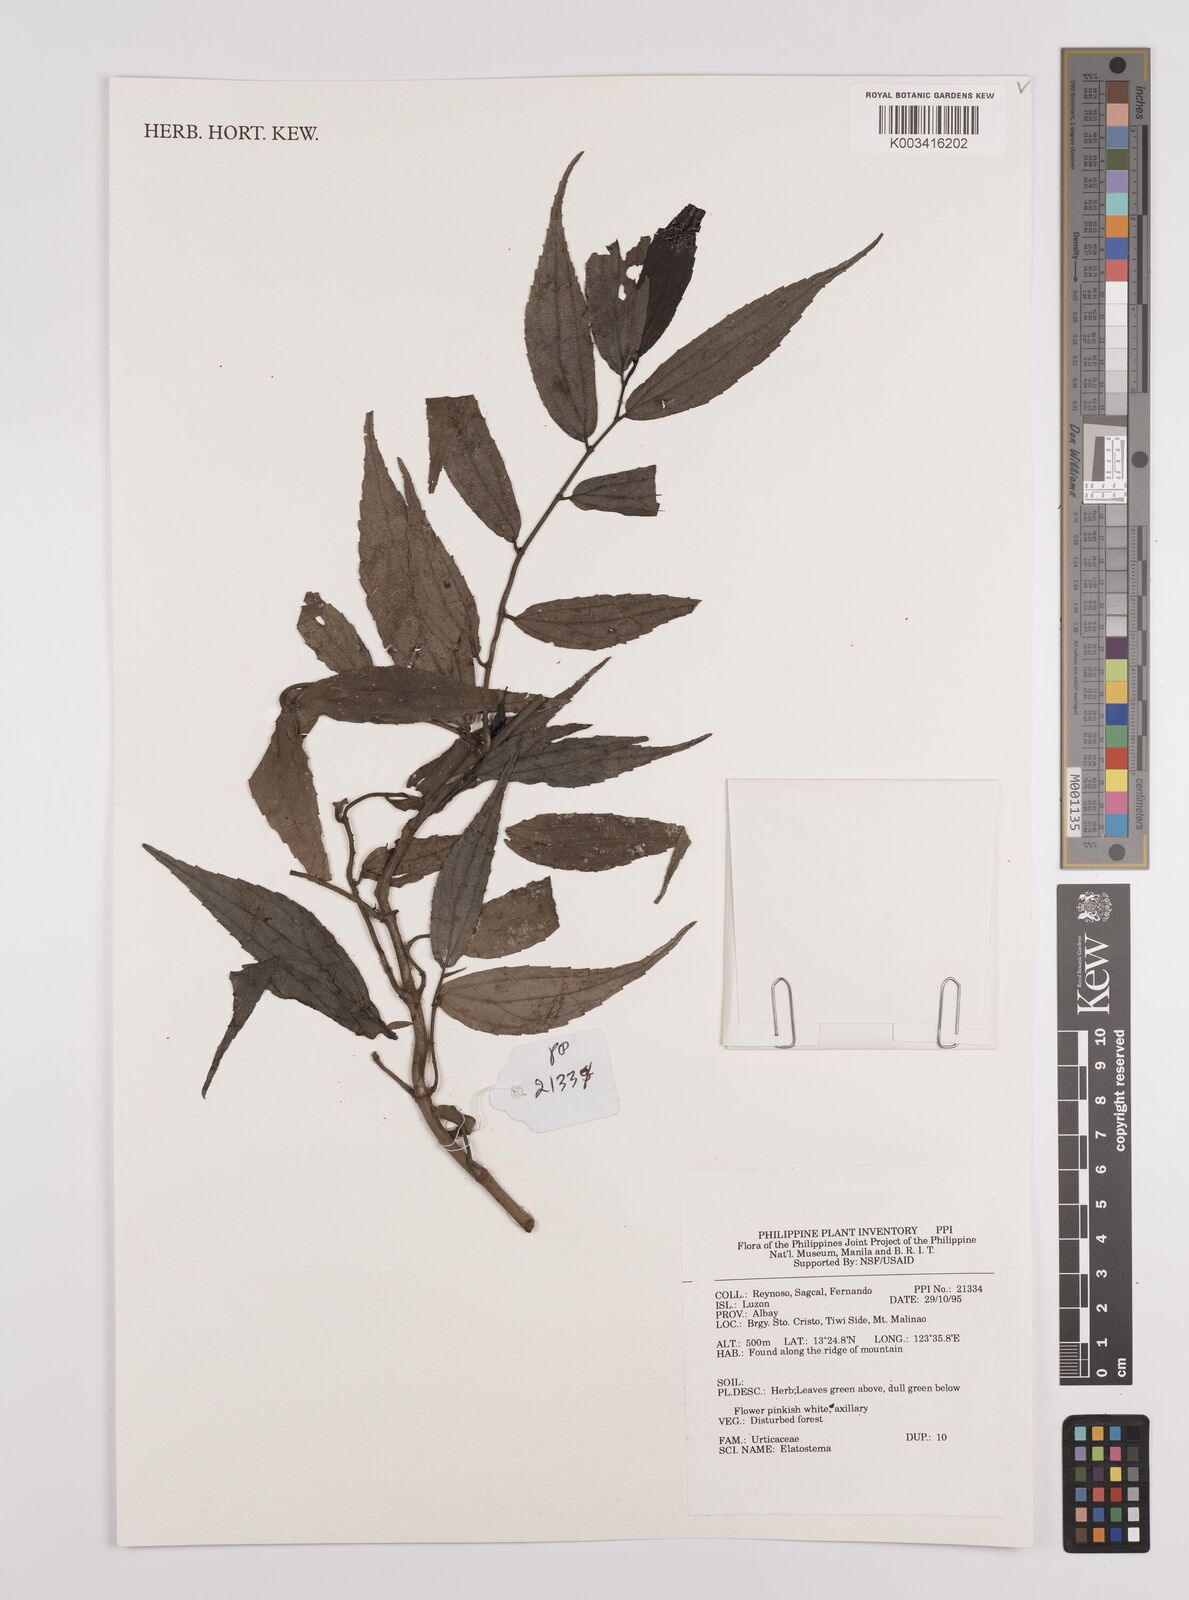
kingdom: Plantae
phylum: Tracheophyta
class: Magnoliopsida
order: Rosales
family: Urticaceae
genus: Elatostema
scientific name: Elatostema
